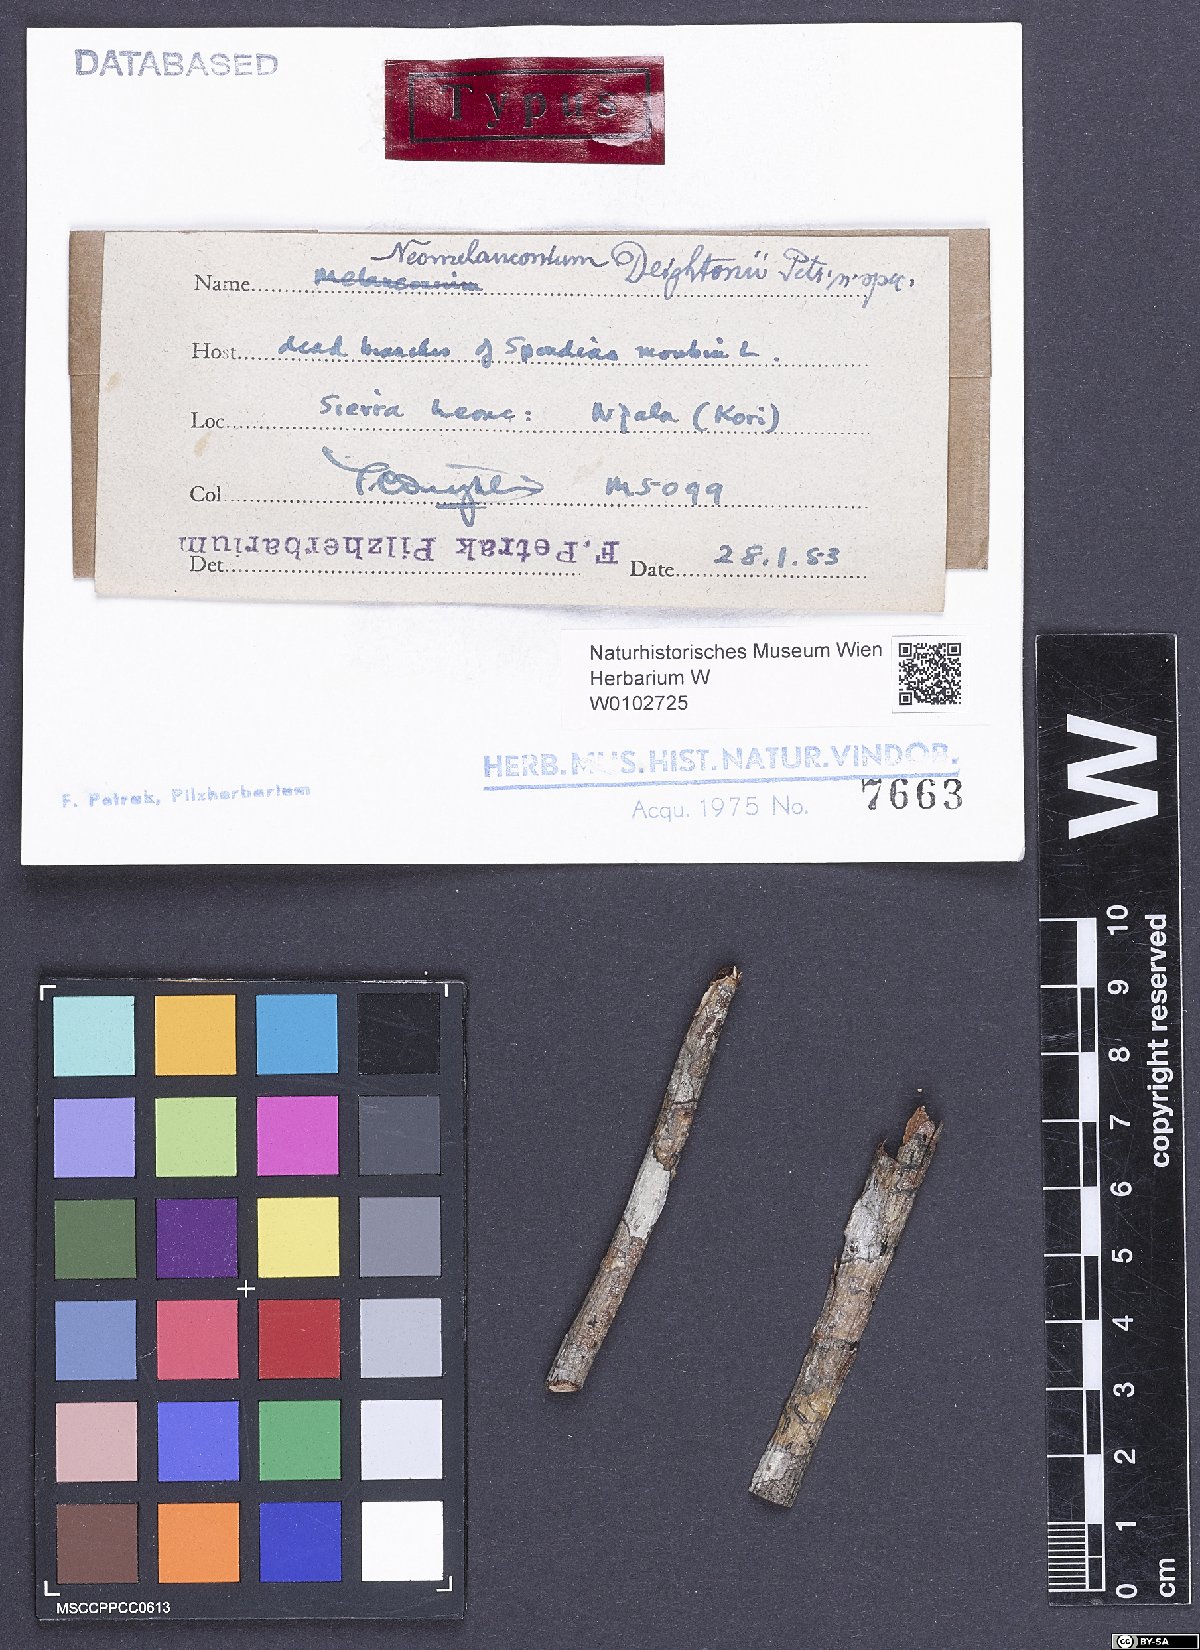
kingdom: Fungi
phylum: Ascomycota
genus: Neomelanconium
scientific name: Neomelanconium deightonii
